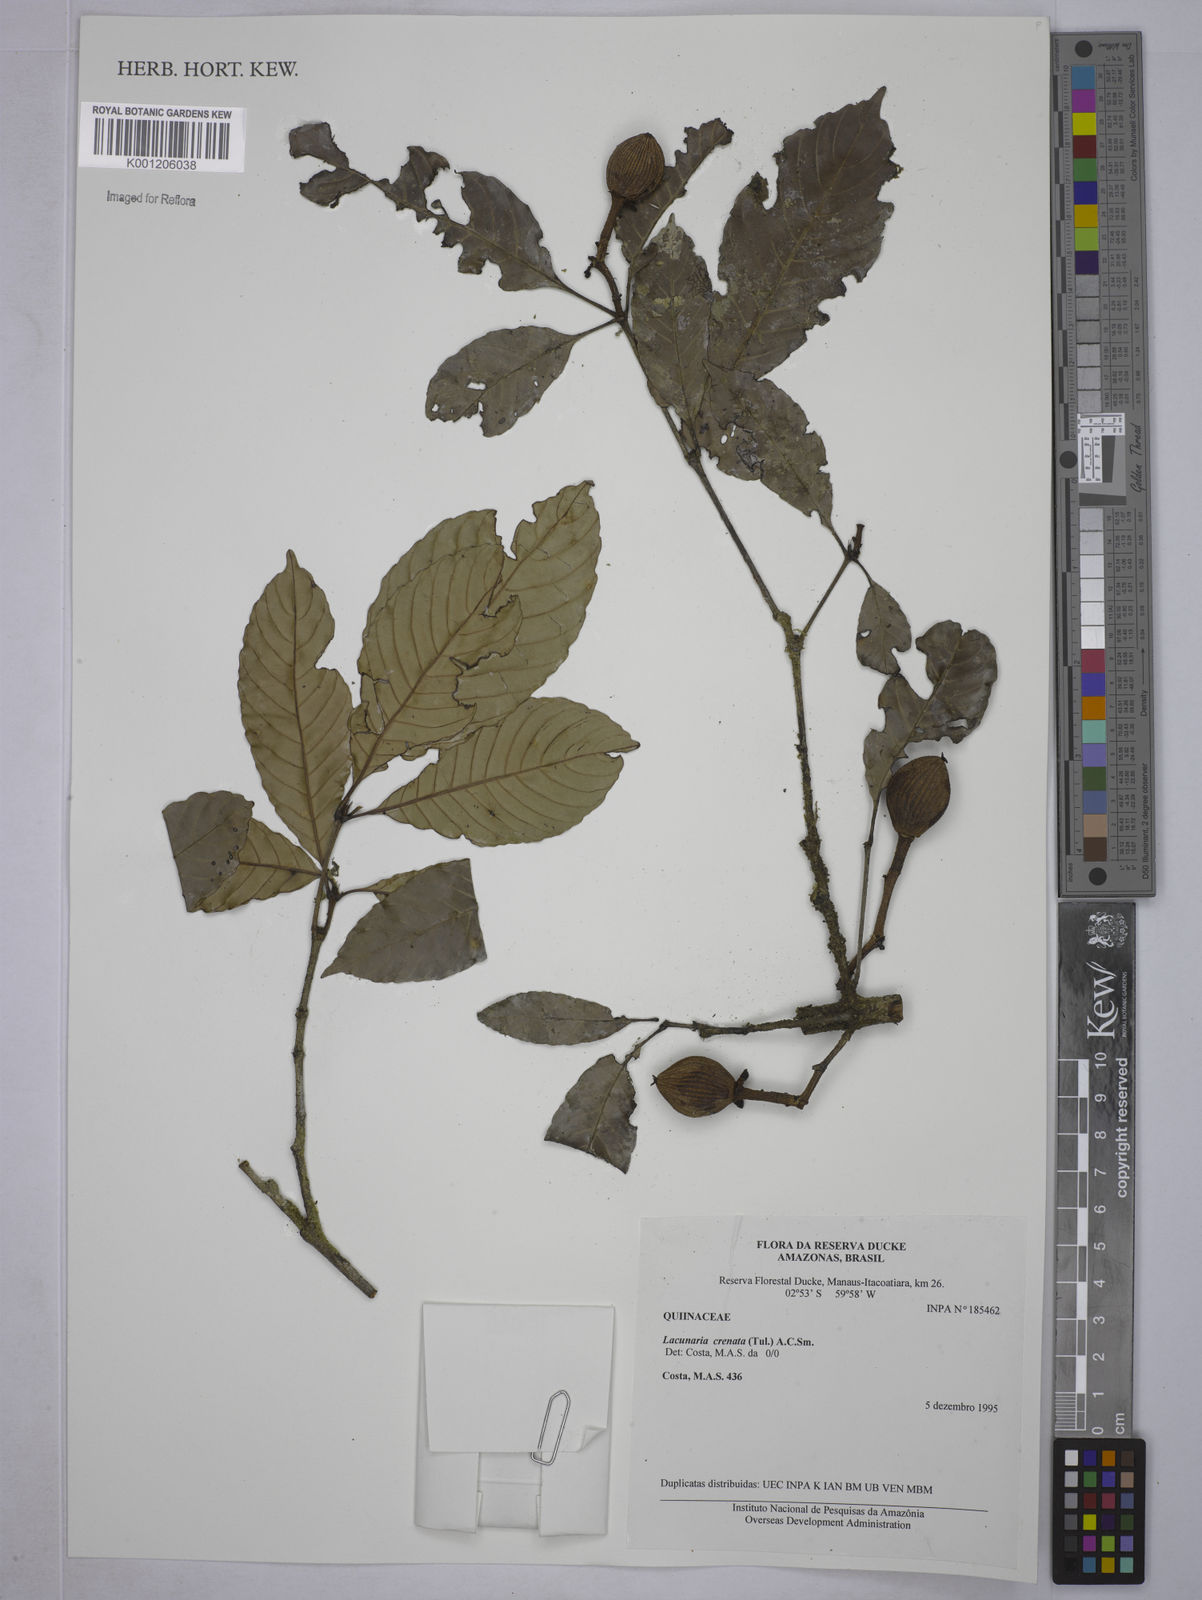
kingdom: Plantae
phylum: Tracheophyta
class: Magnoliopsida
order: Malpighiales
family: Quiinaceae
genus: Lacunaria
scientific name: Lacunaria crenata
